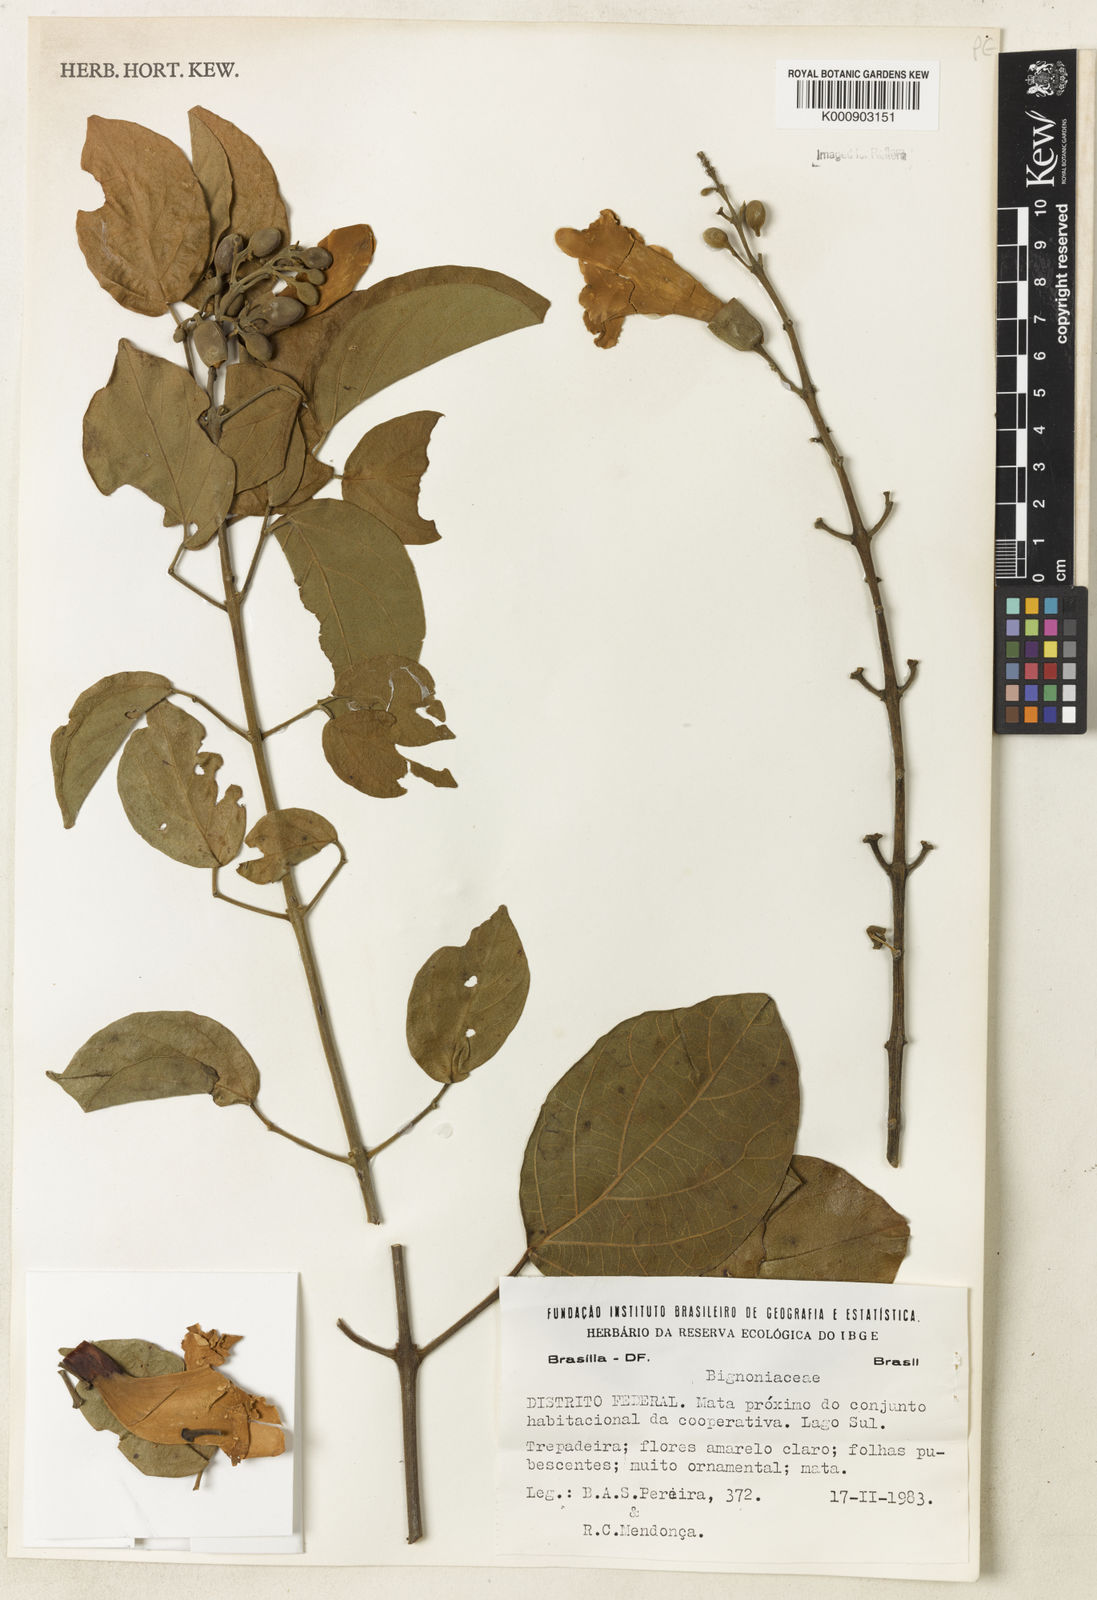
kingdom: Plantae
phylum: Tracheophyta
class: Magnoliopsida
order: Lamiales
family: Bignoniaceae
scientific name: Bignoniaceae
